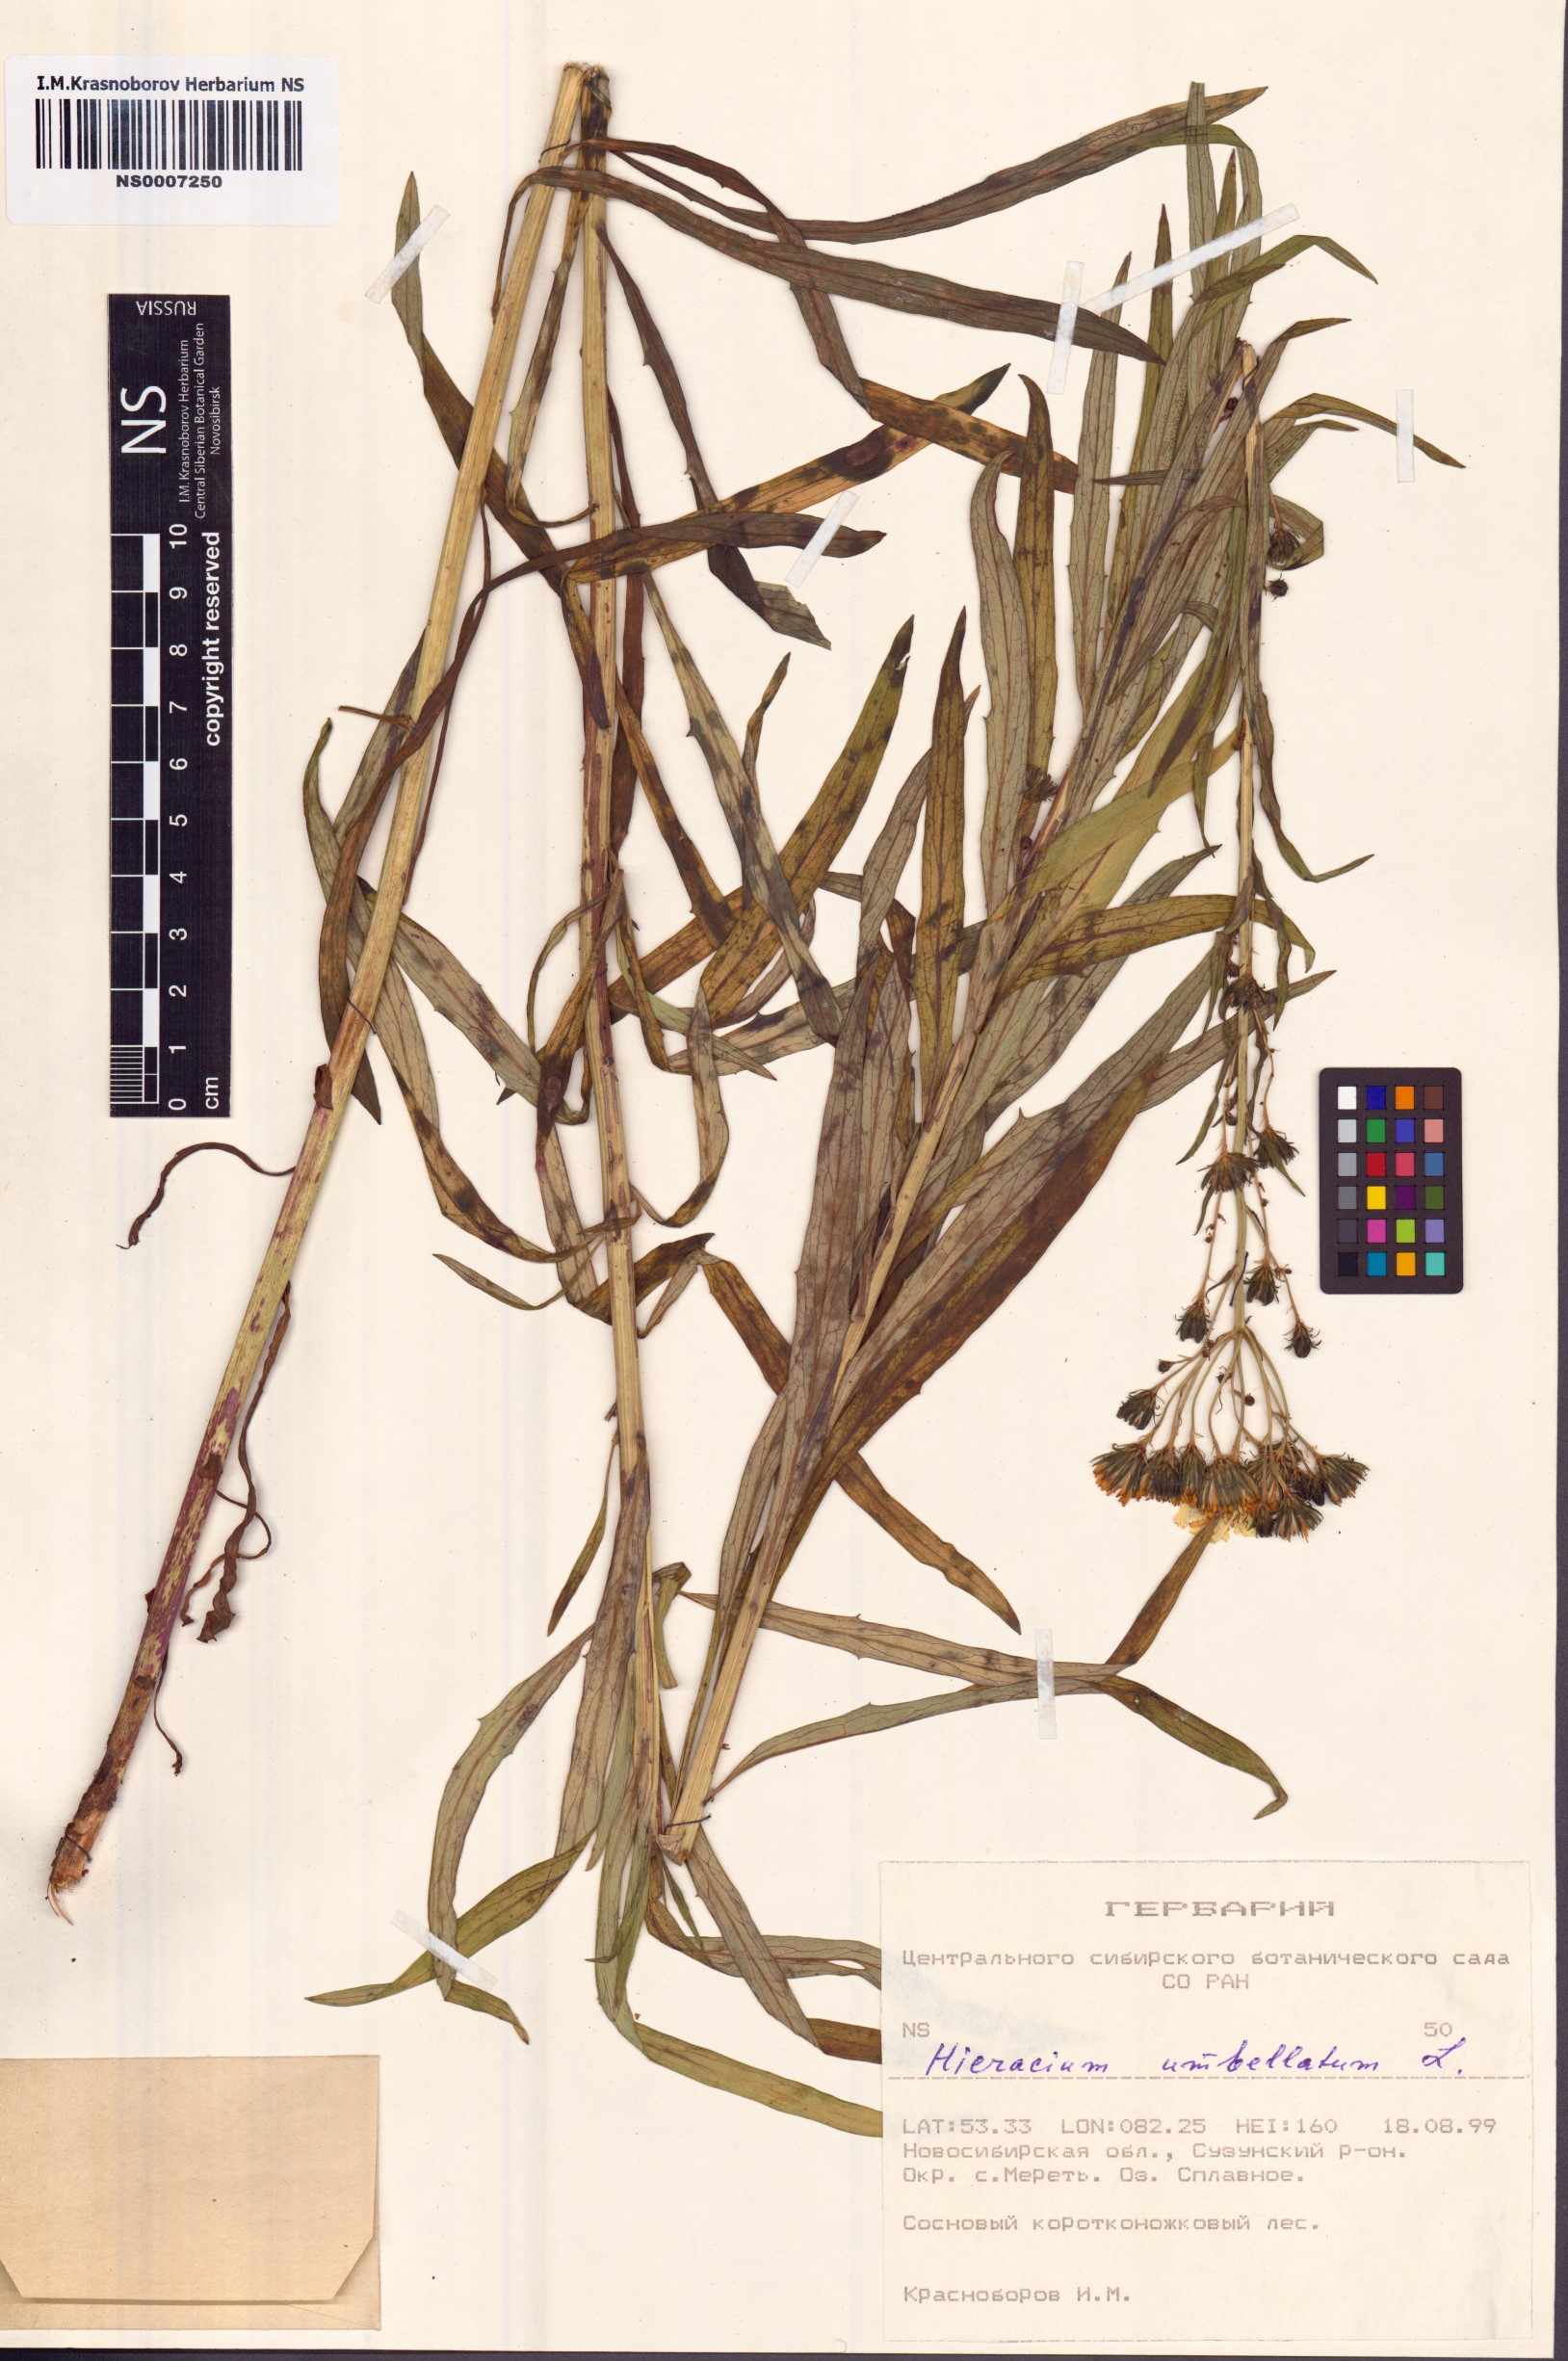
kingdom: Plantae
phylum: Tracheophyta
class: Magnoliopsida
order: Asterales
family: Asteraceae
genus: Hieracium
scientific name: Hieracium umbellatum
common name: Northern hawkweed
